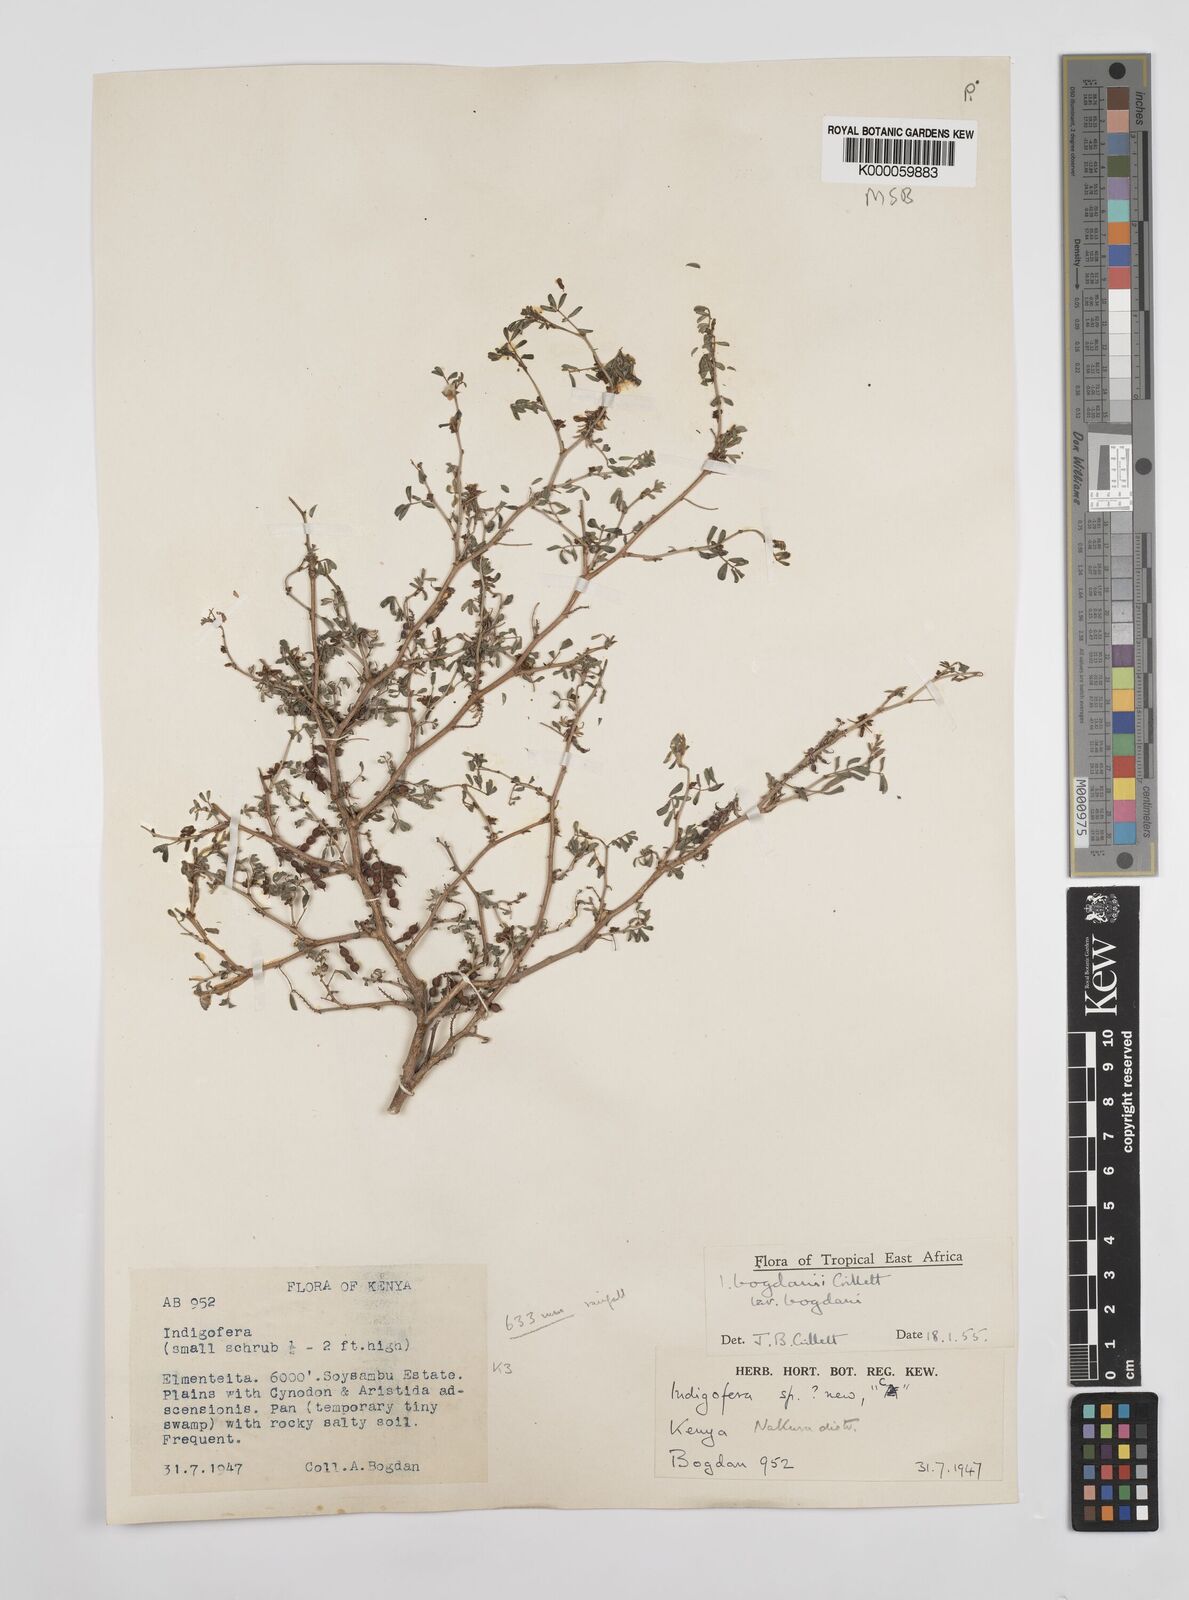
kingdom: Plantae
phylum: Tracheophyta
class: Magnoliopsida
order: Fabales
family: Fabaceae
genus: Indigofera
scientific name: Indigofera bogdanii
